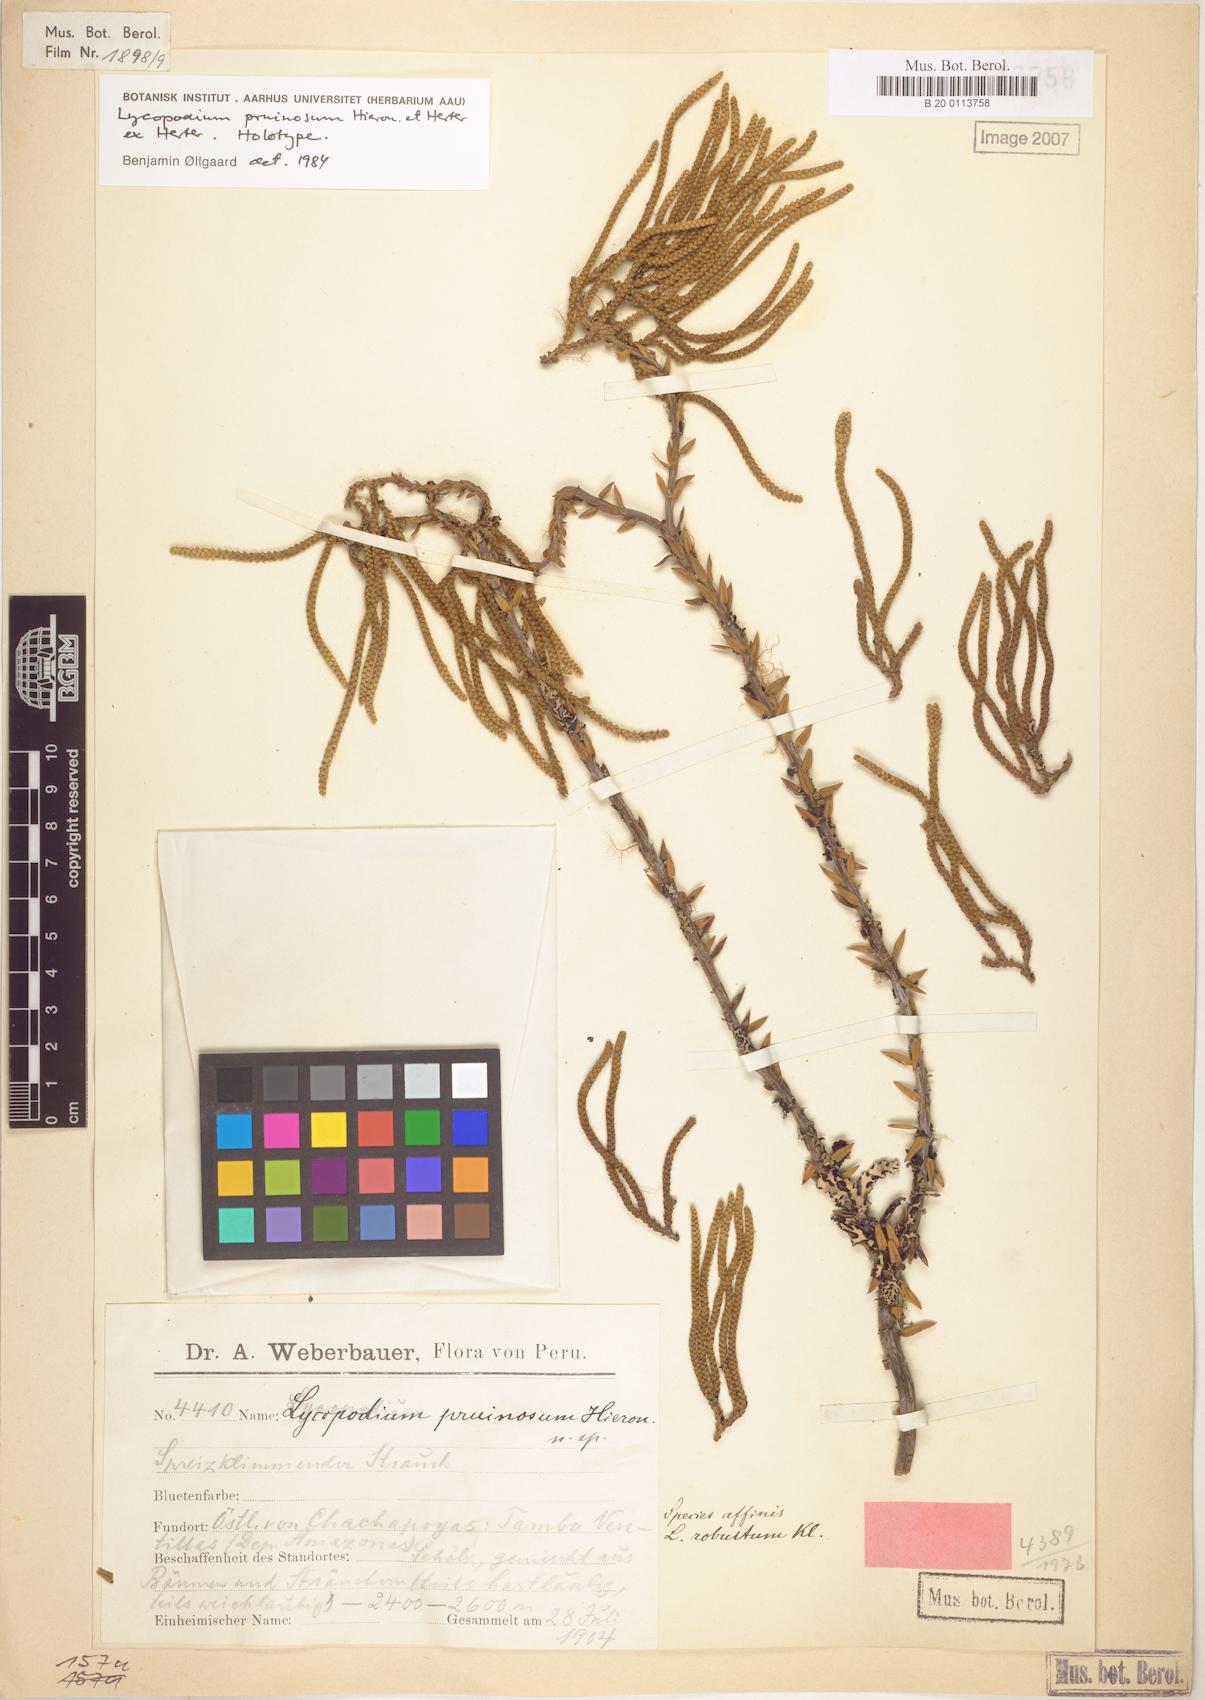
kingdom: Plantae
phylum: Tracheophyta
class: Lycopodiopsida
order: Lycopodiales
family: Lycopodiaceae
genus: Phlegmariurus
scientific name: Phlegmariurus pruinosus
